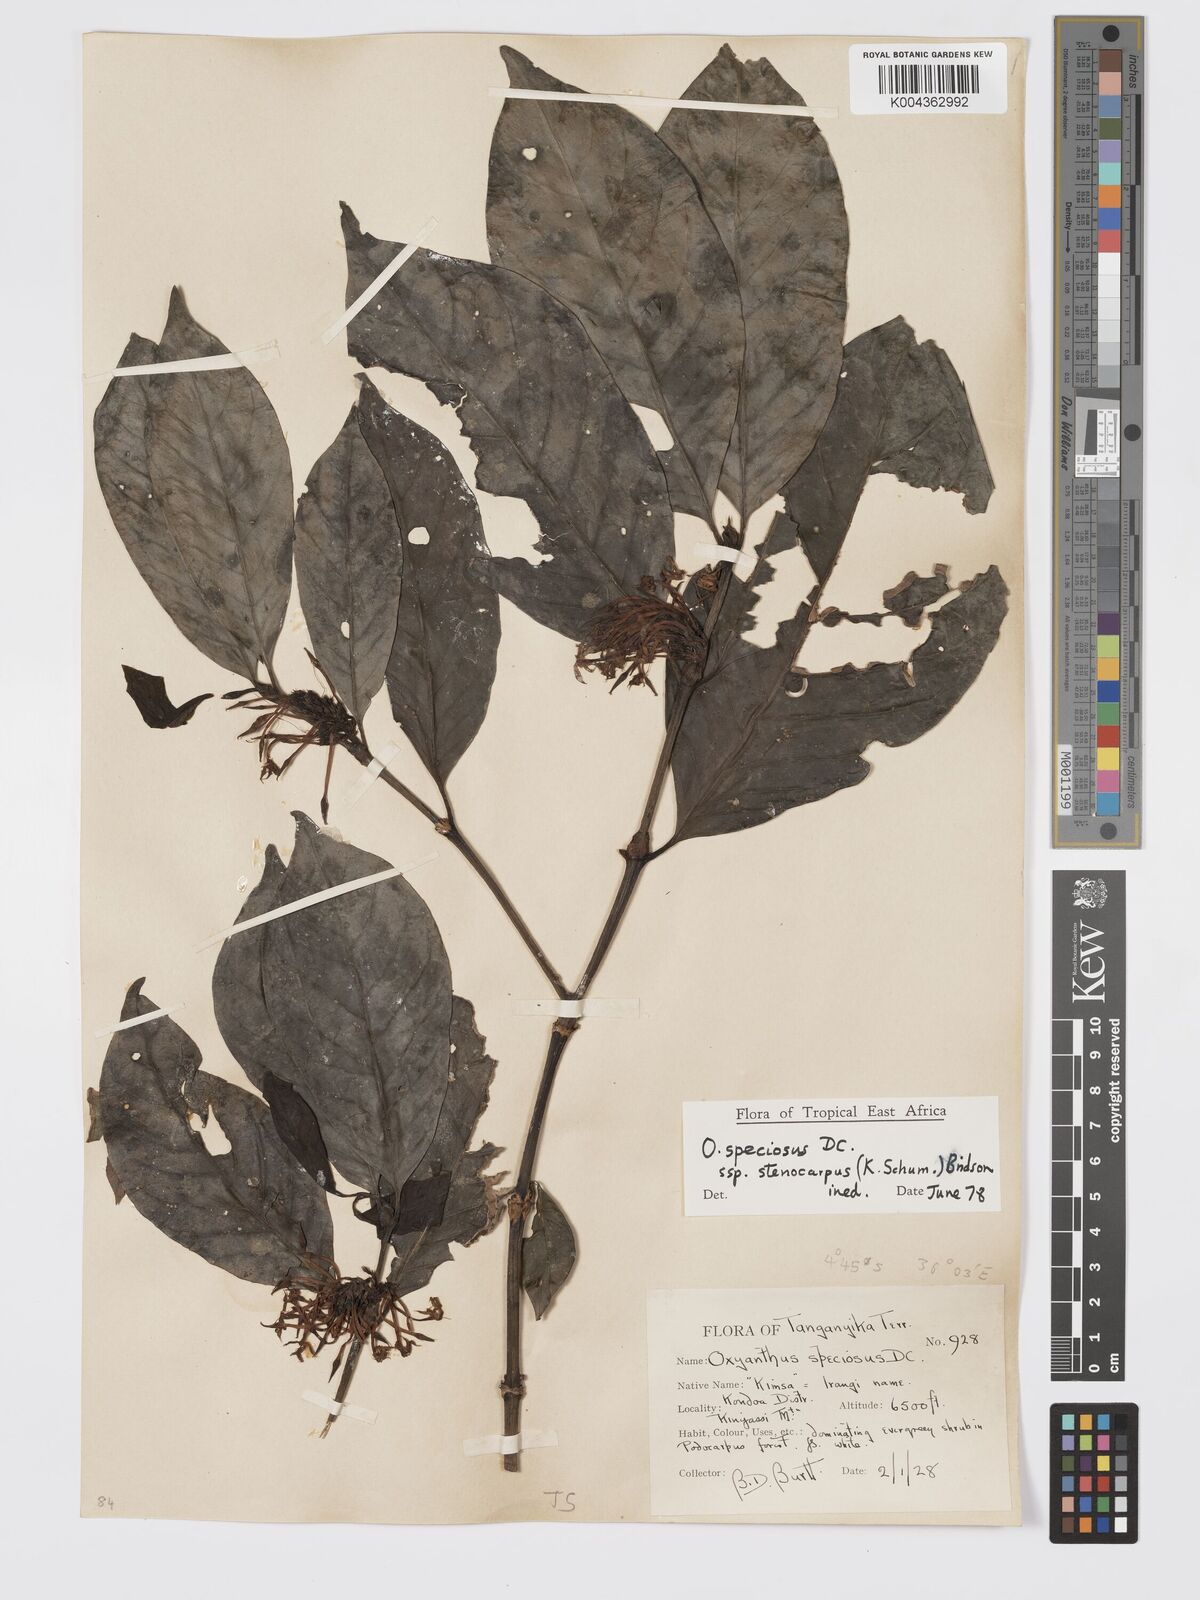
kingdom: Plantae
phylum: Tracheophyta
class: Magnoliopsida
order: Gentianales
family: Rubiaceae
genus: Oxyanthus
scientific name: Oxyanthus speciosus
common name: Whipstick loquat
